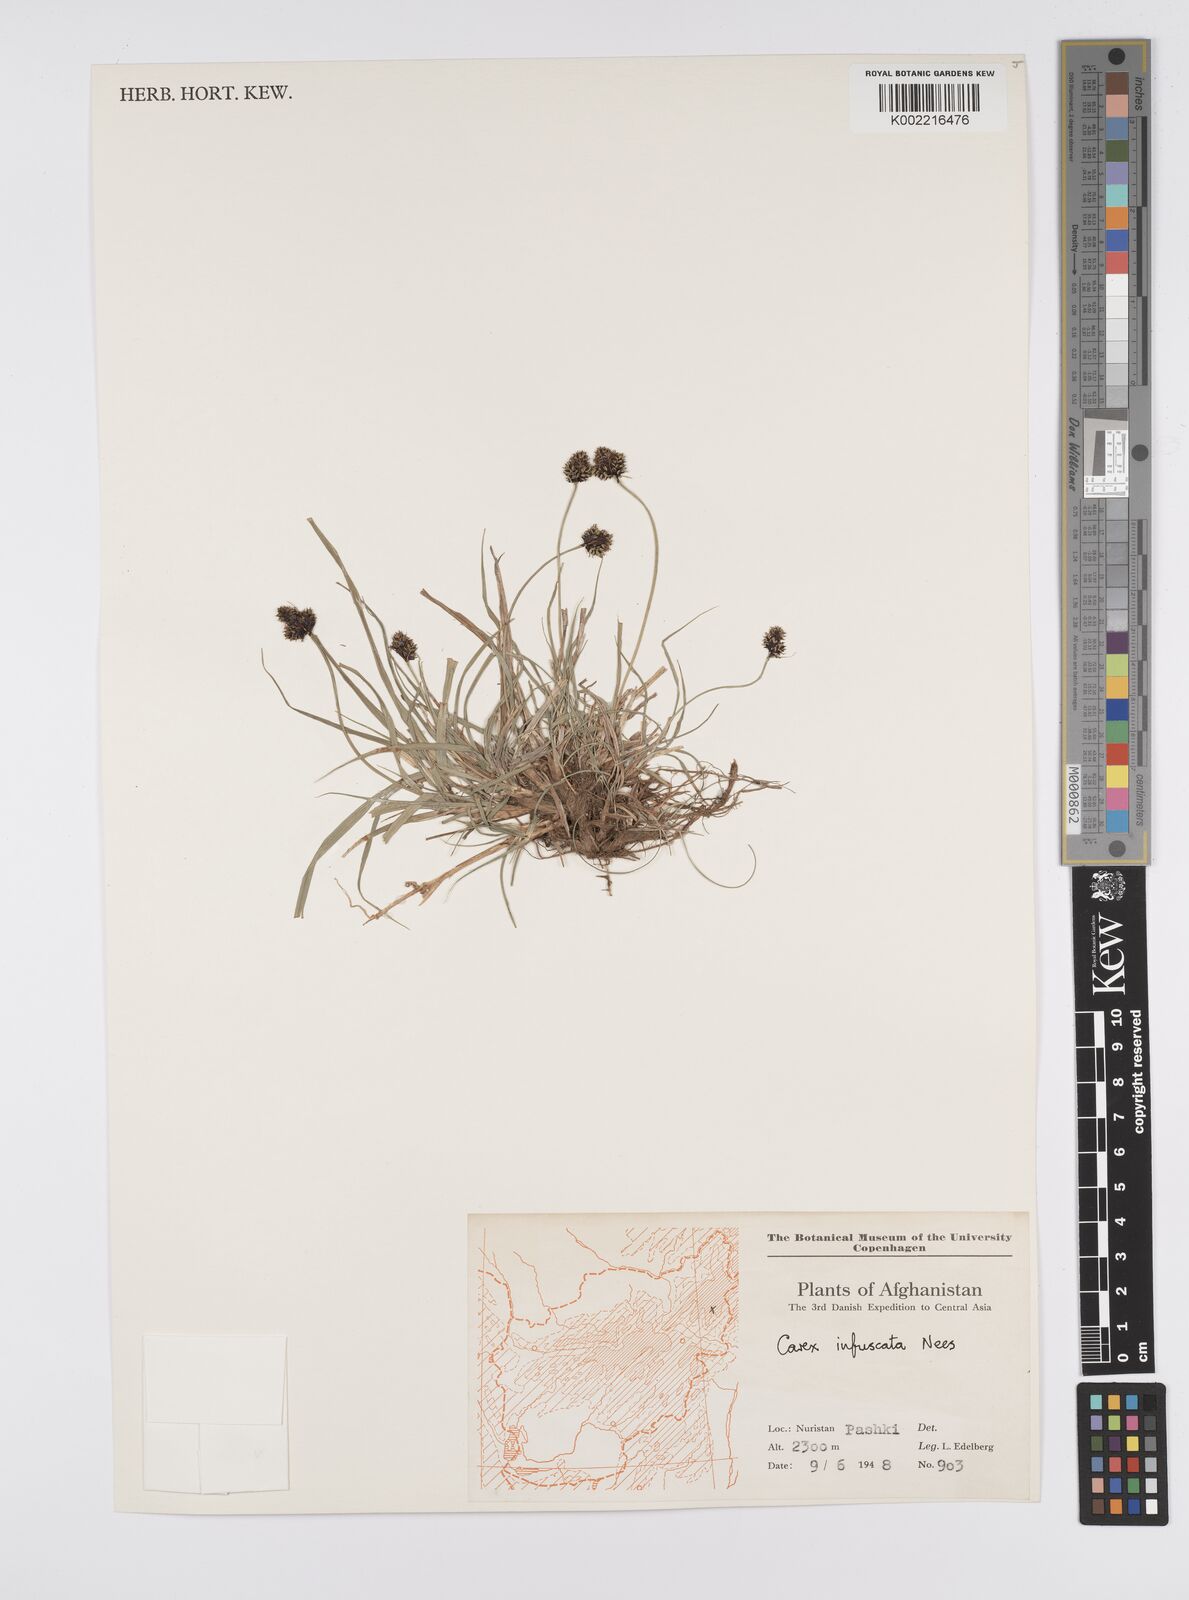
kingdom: Plantae
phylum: Tracheophyta
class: Liliopsida
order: Poales
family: Cyperaceae
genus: Carex
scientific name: Carex infuscata
